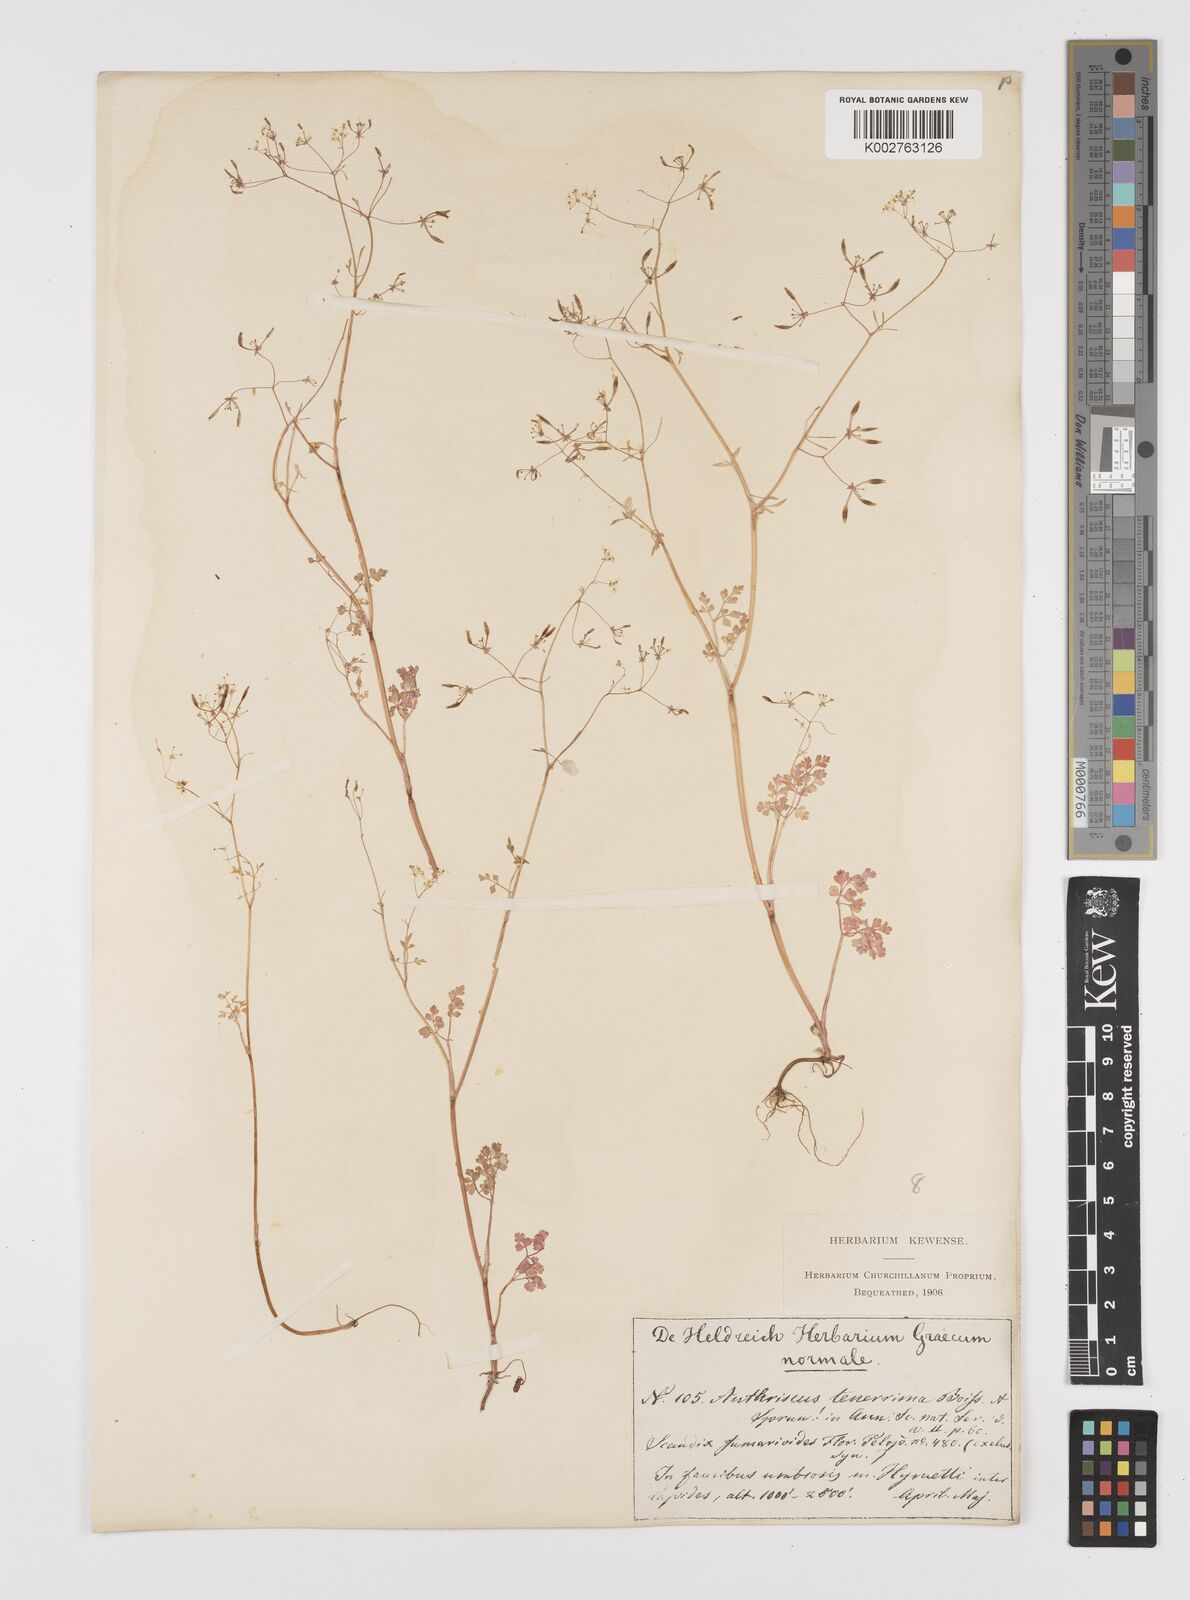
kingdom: Plantae
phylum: Tracheophyta
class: Magnoliopsida
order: Apiales
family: Apiaceae
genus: Anthriscus
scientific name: Anthriscus tenerrima
